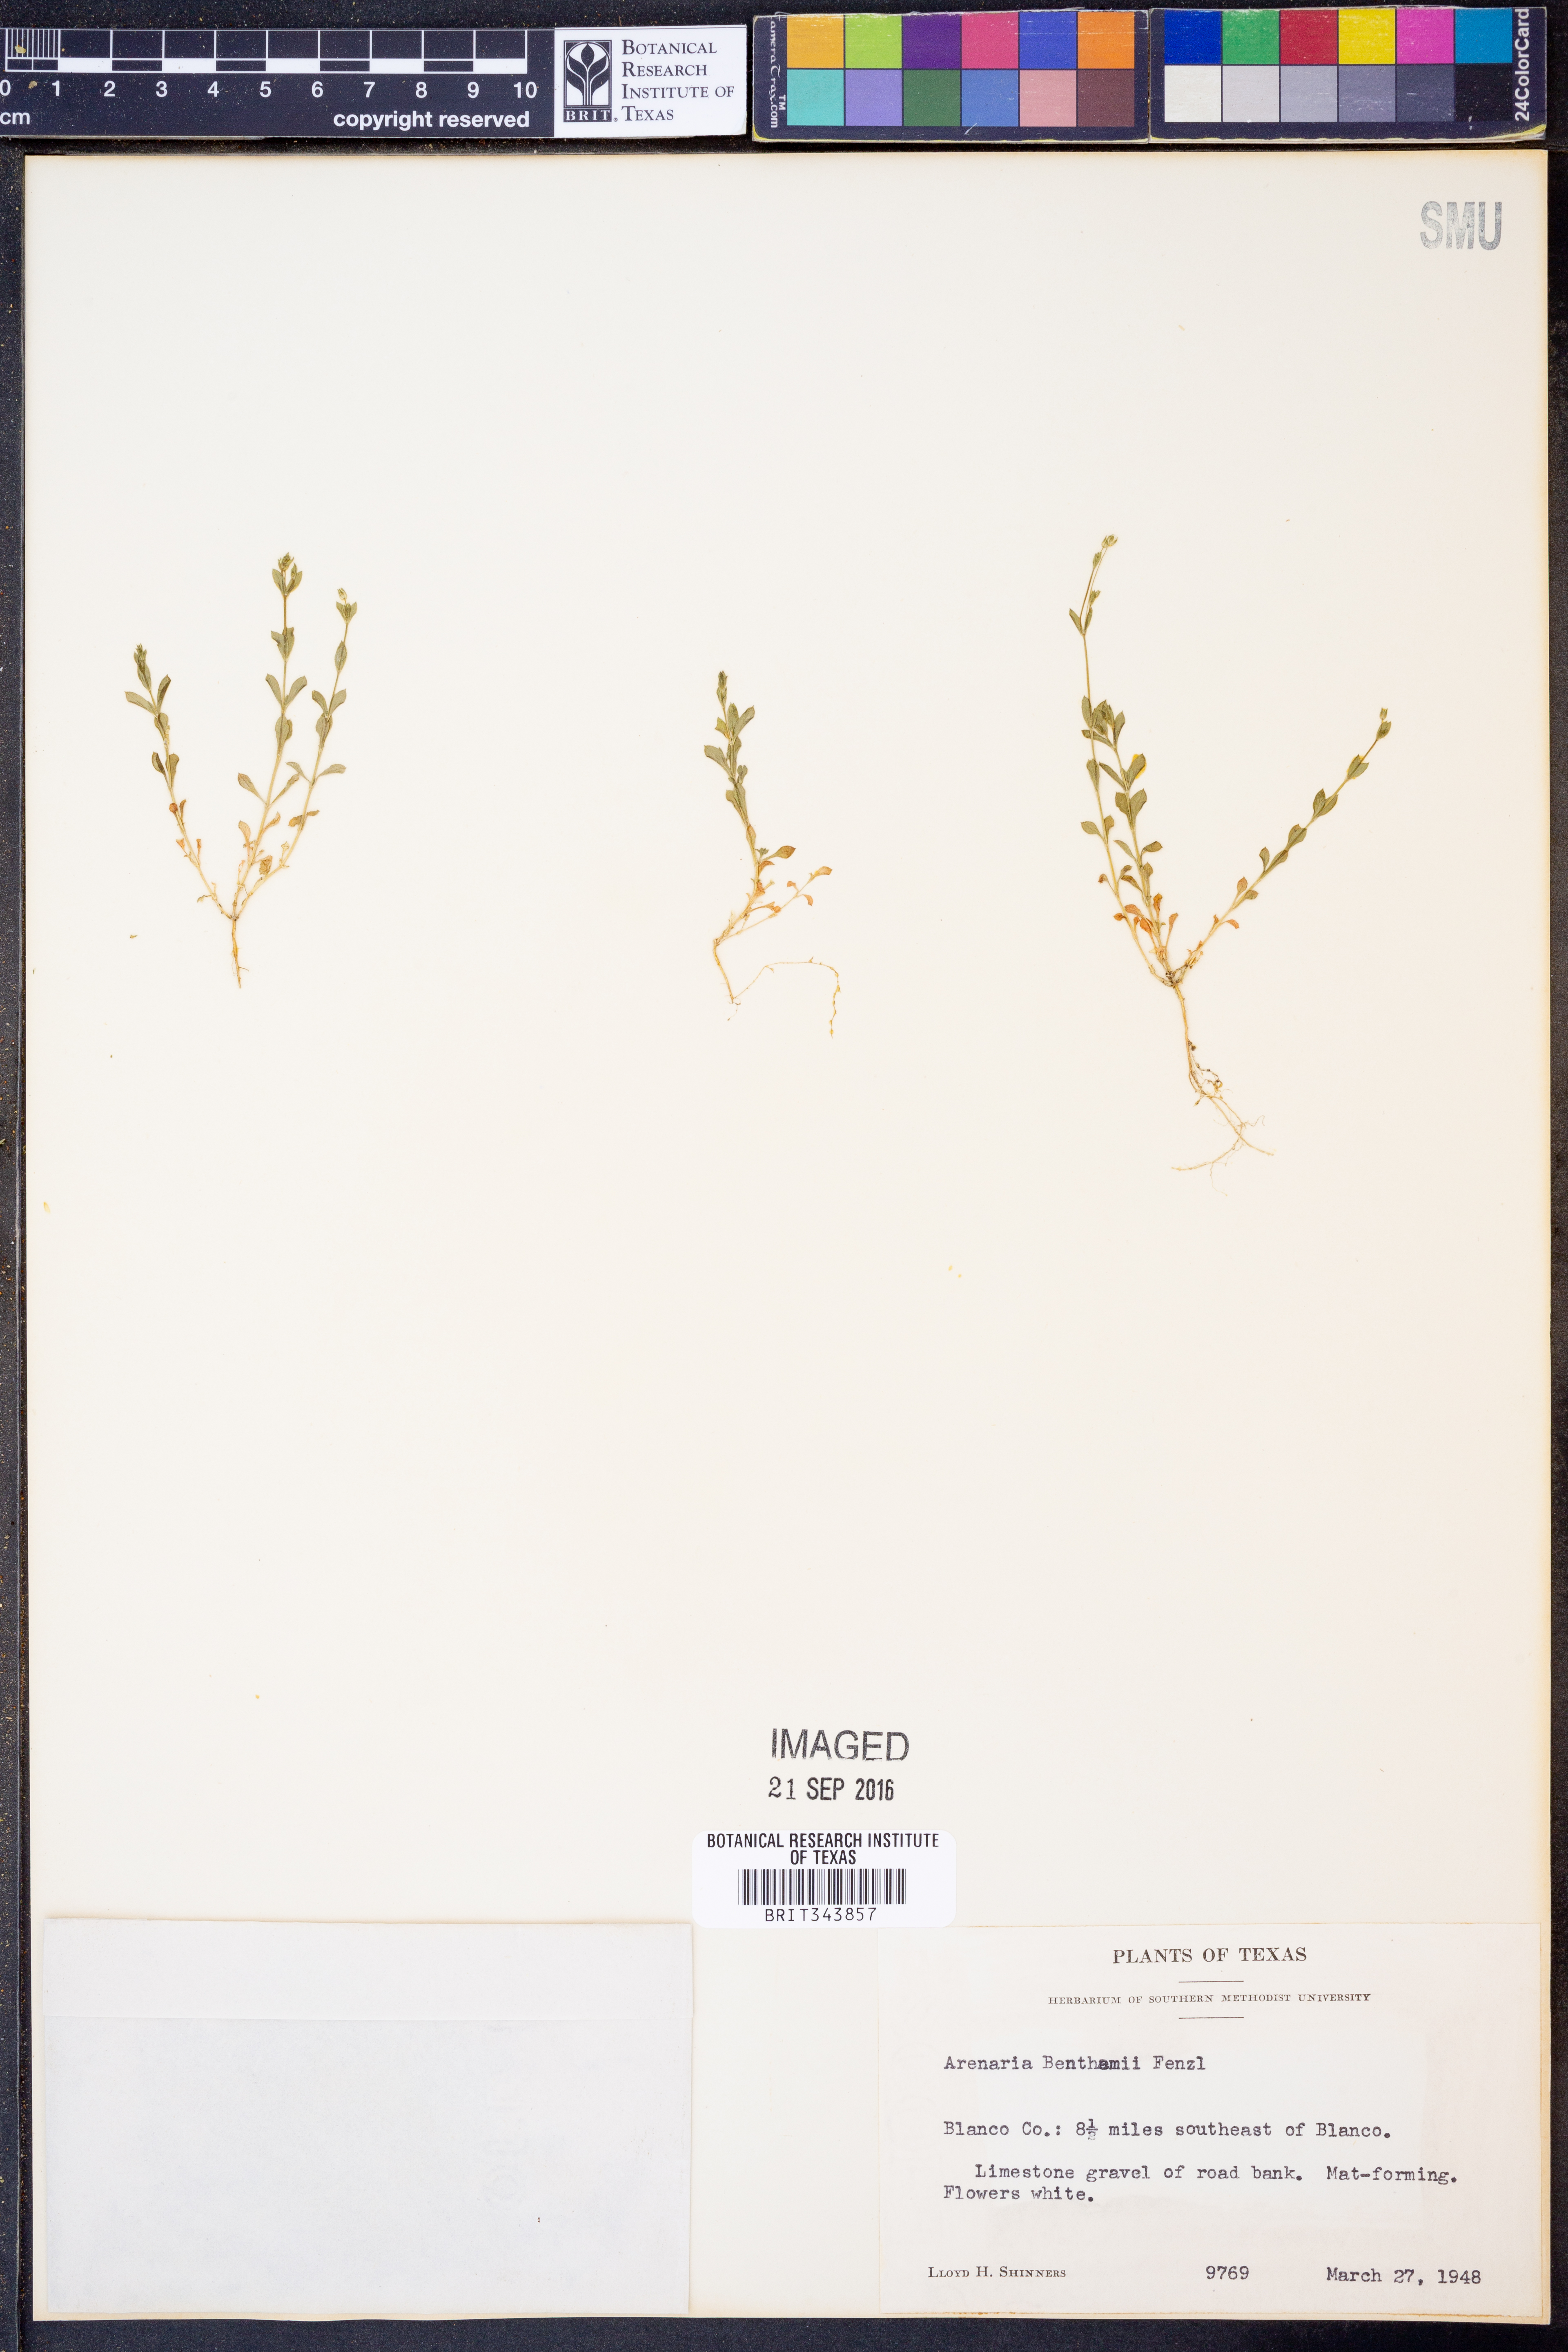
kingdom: Plantae
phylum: Tracheophyta
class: Magnoliopsida
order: Caryophyllales
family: Caryophyllaceae
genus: Arenaria
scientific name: Arenaria benthamii
